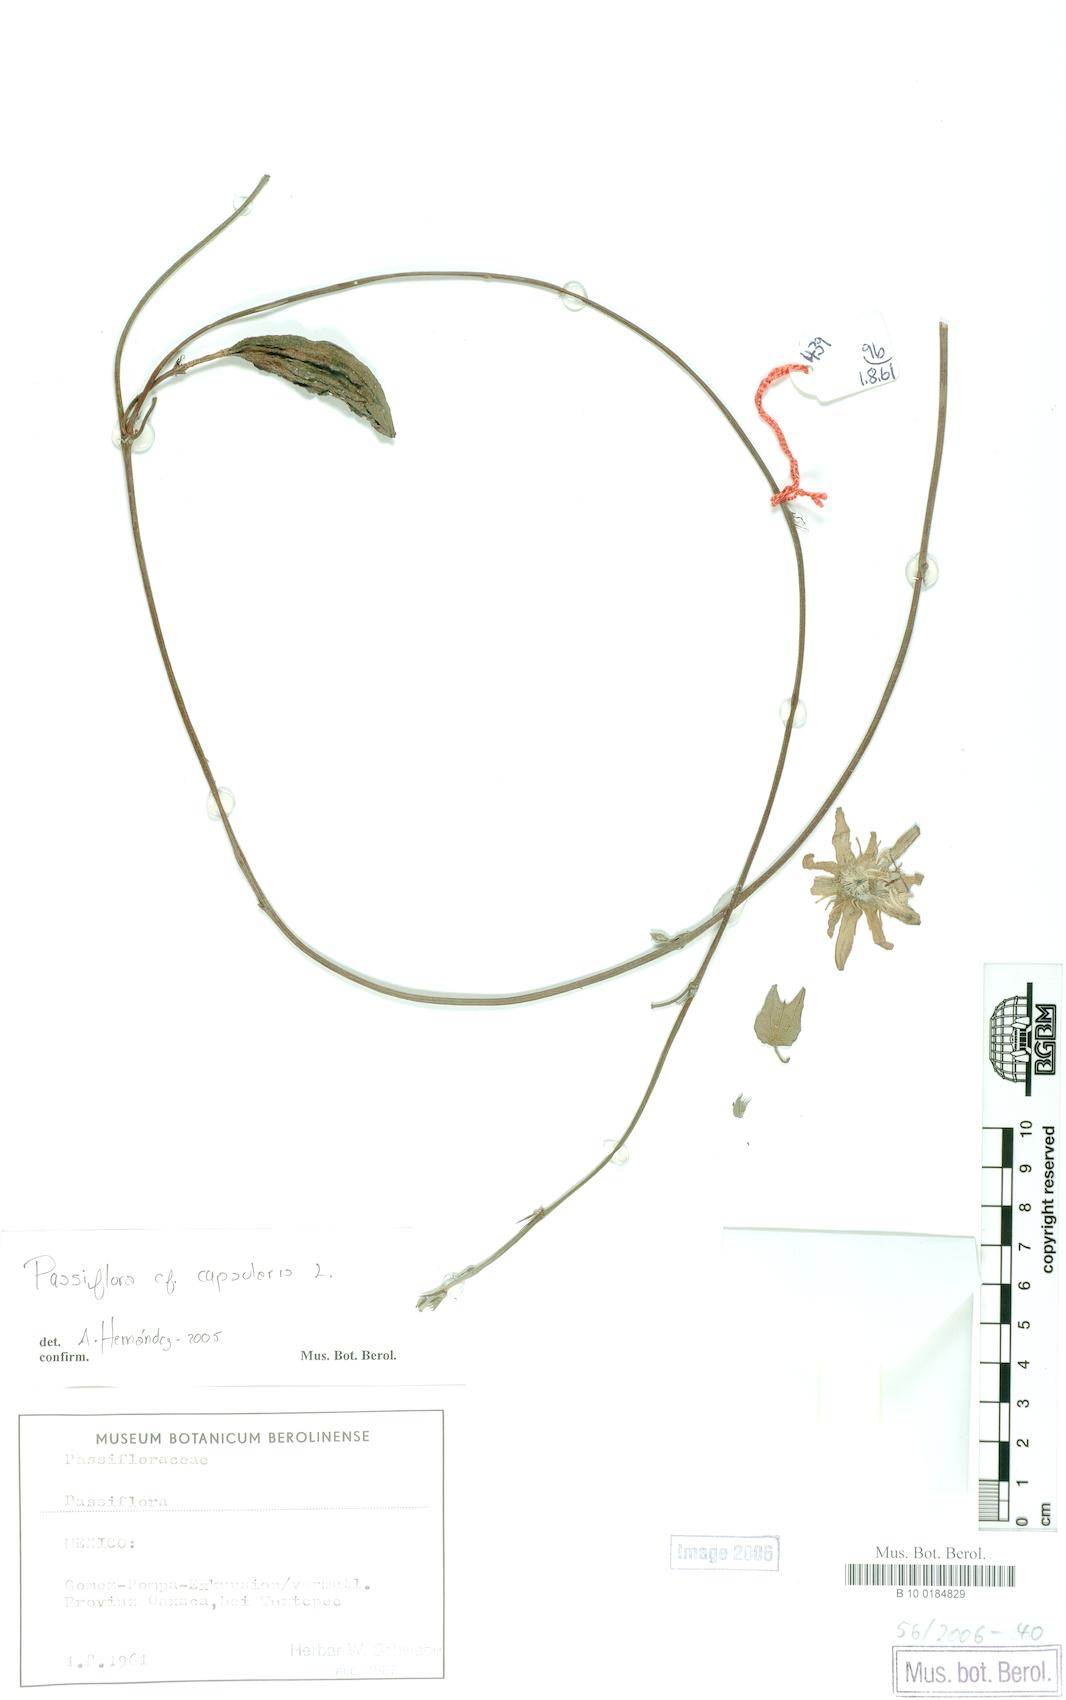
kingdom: Plantae
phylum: Tracheophyta
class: Magnoliopsida
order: Malpighiales
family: Passifloraceae
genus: Passiflora
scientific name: Passiflora capsularis
